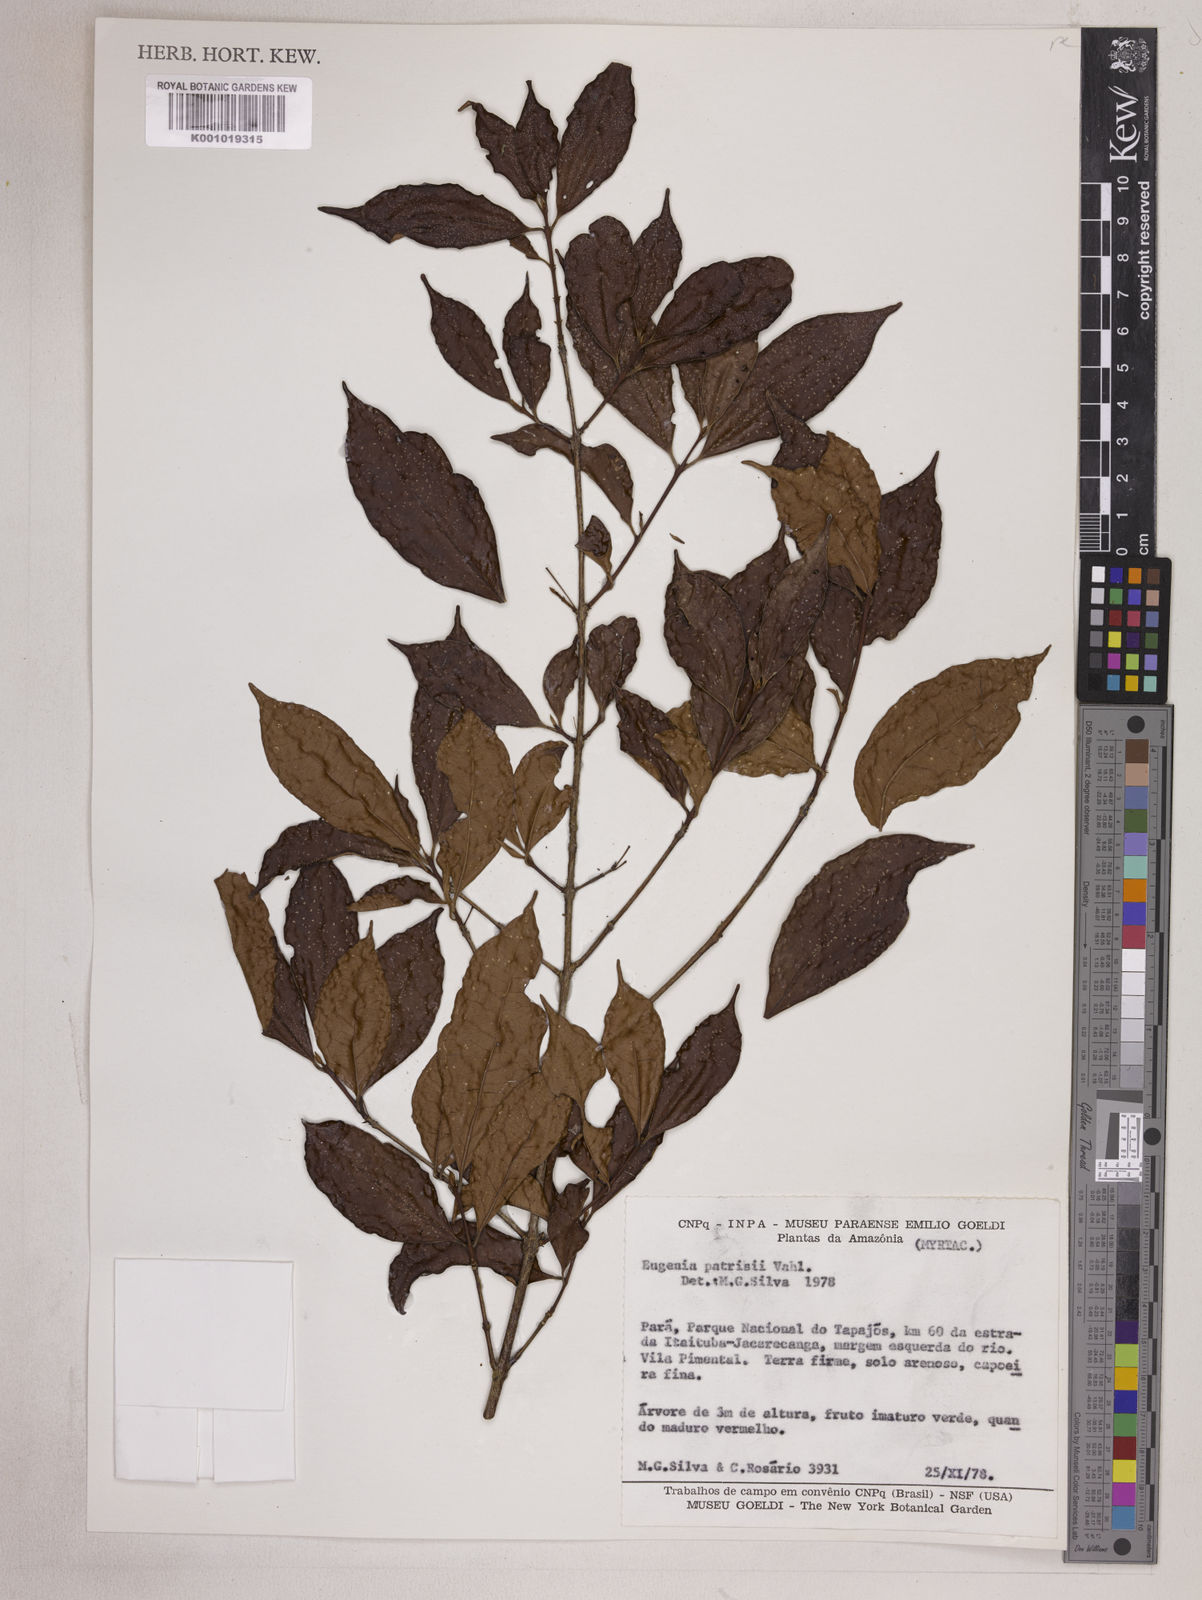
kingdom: Plantae
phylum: Tracheophyta
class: Magnoliopsida
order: Myrtales
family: Myrtaceae
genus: Eugenia
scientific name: Eugenia patrisii
